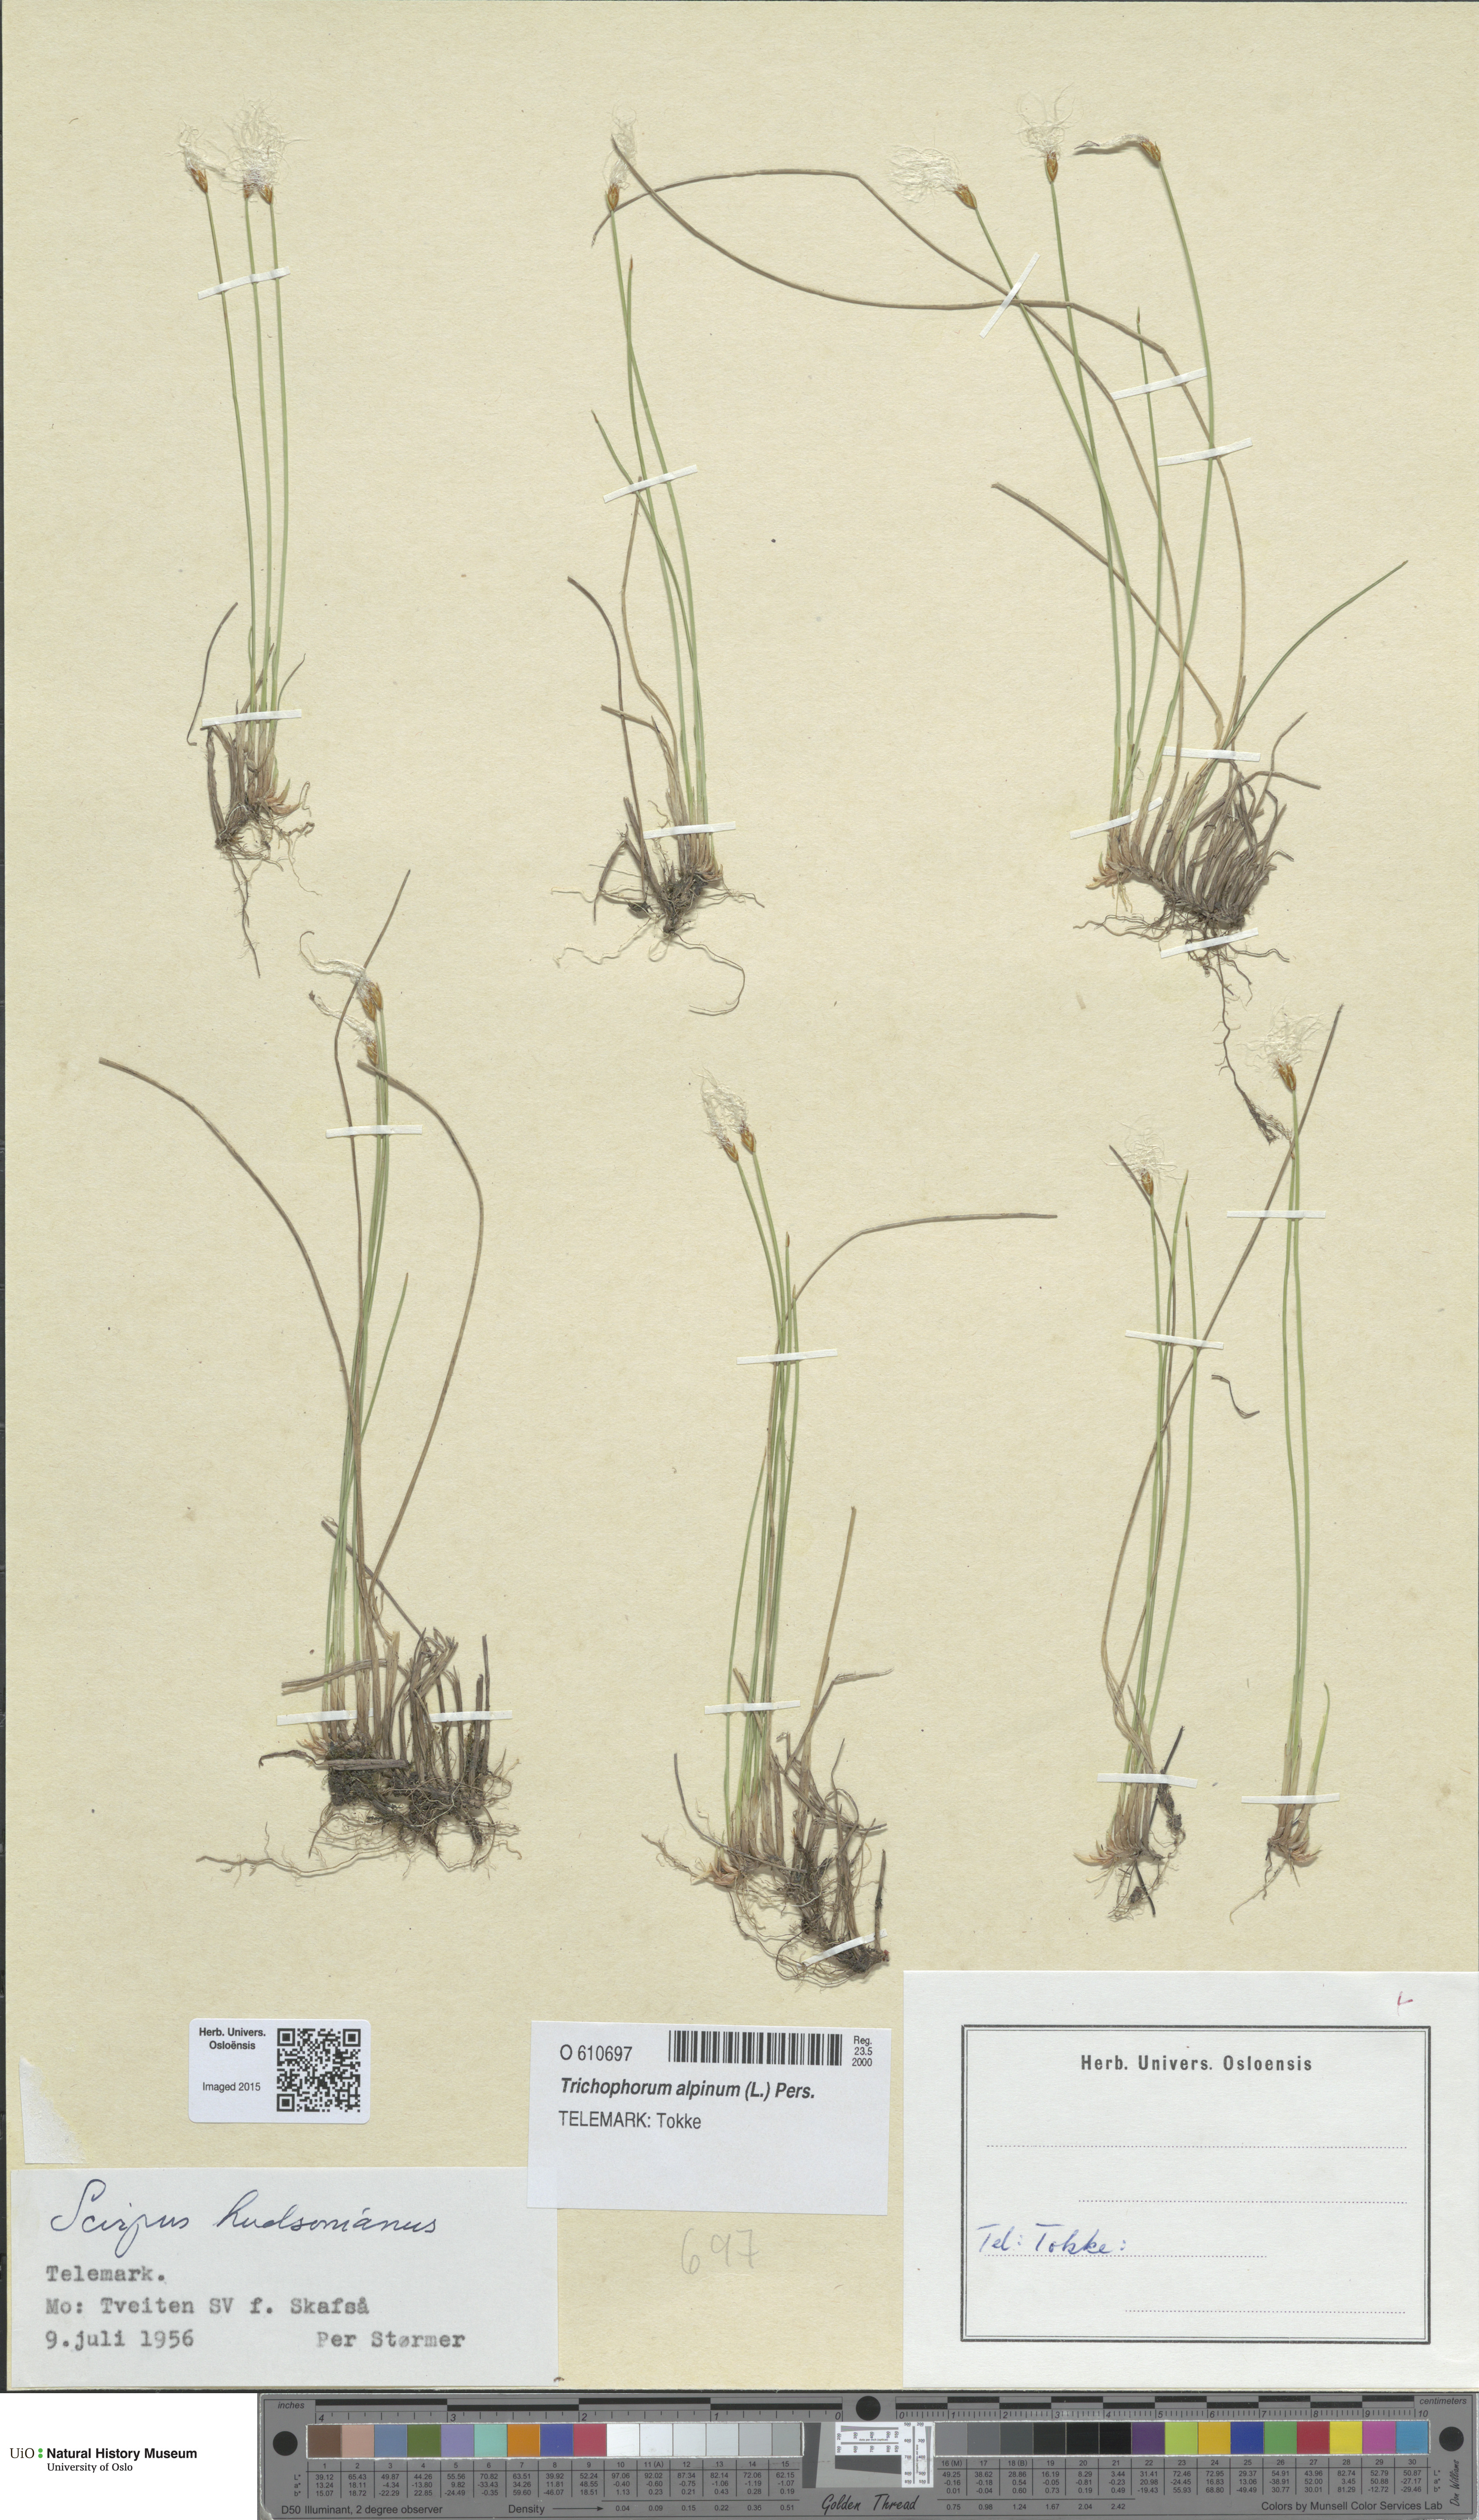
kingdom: Plantae
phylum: Tracheophyta
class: Liliopsida
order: Poales
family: Cyperaceae
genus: Trichophorum
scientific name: Trichophorum alpinum
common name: Alpine bulrush
